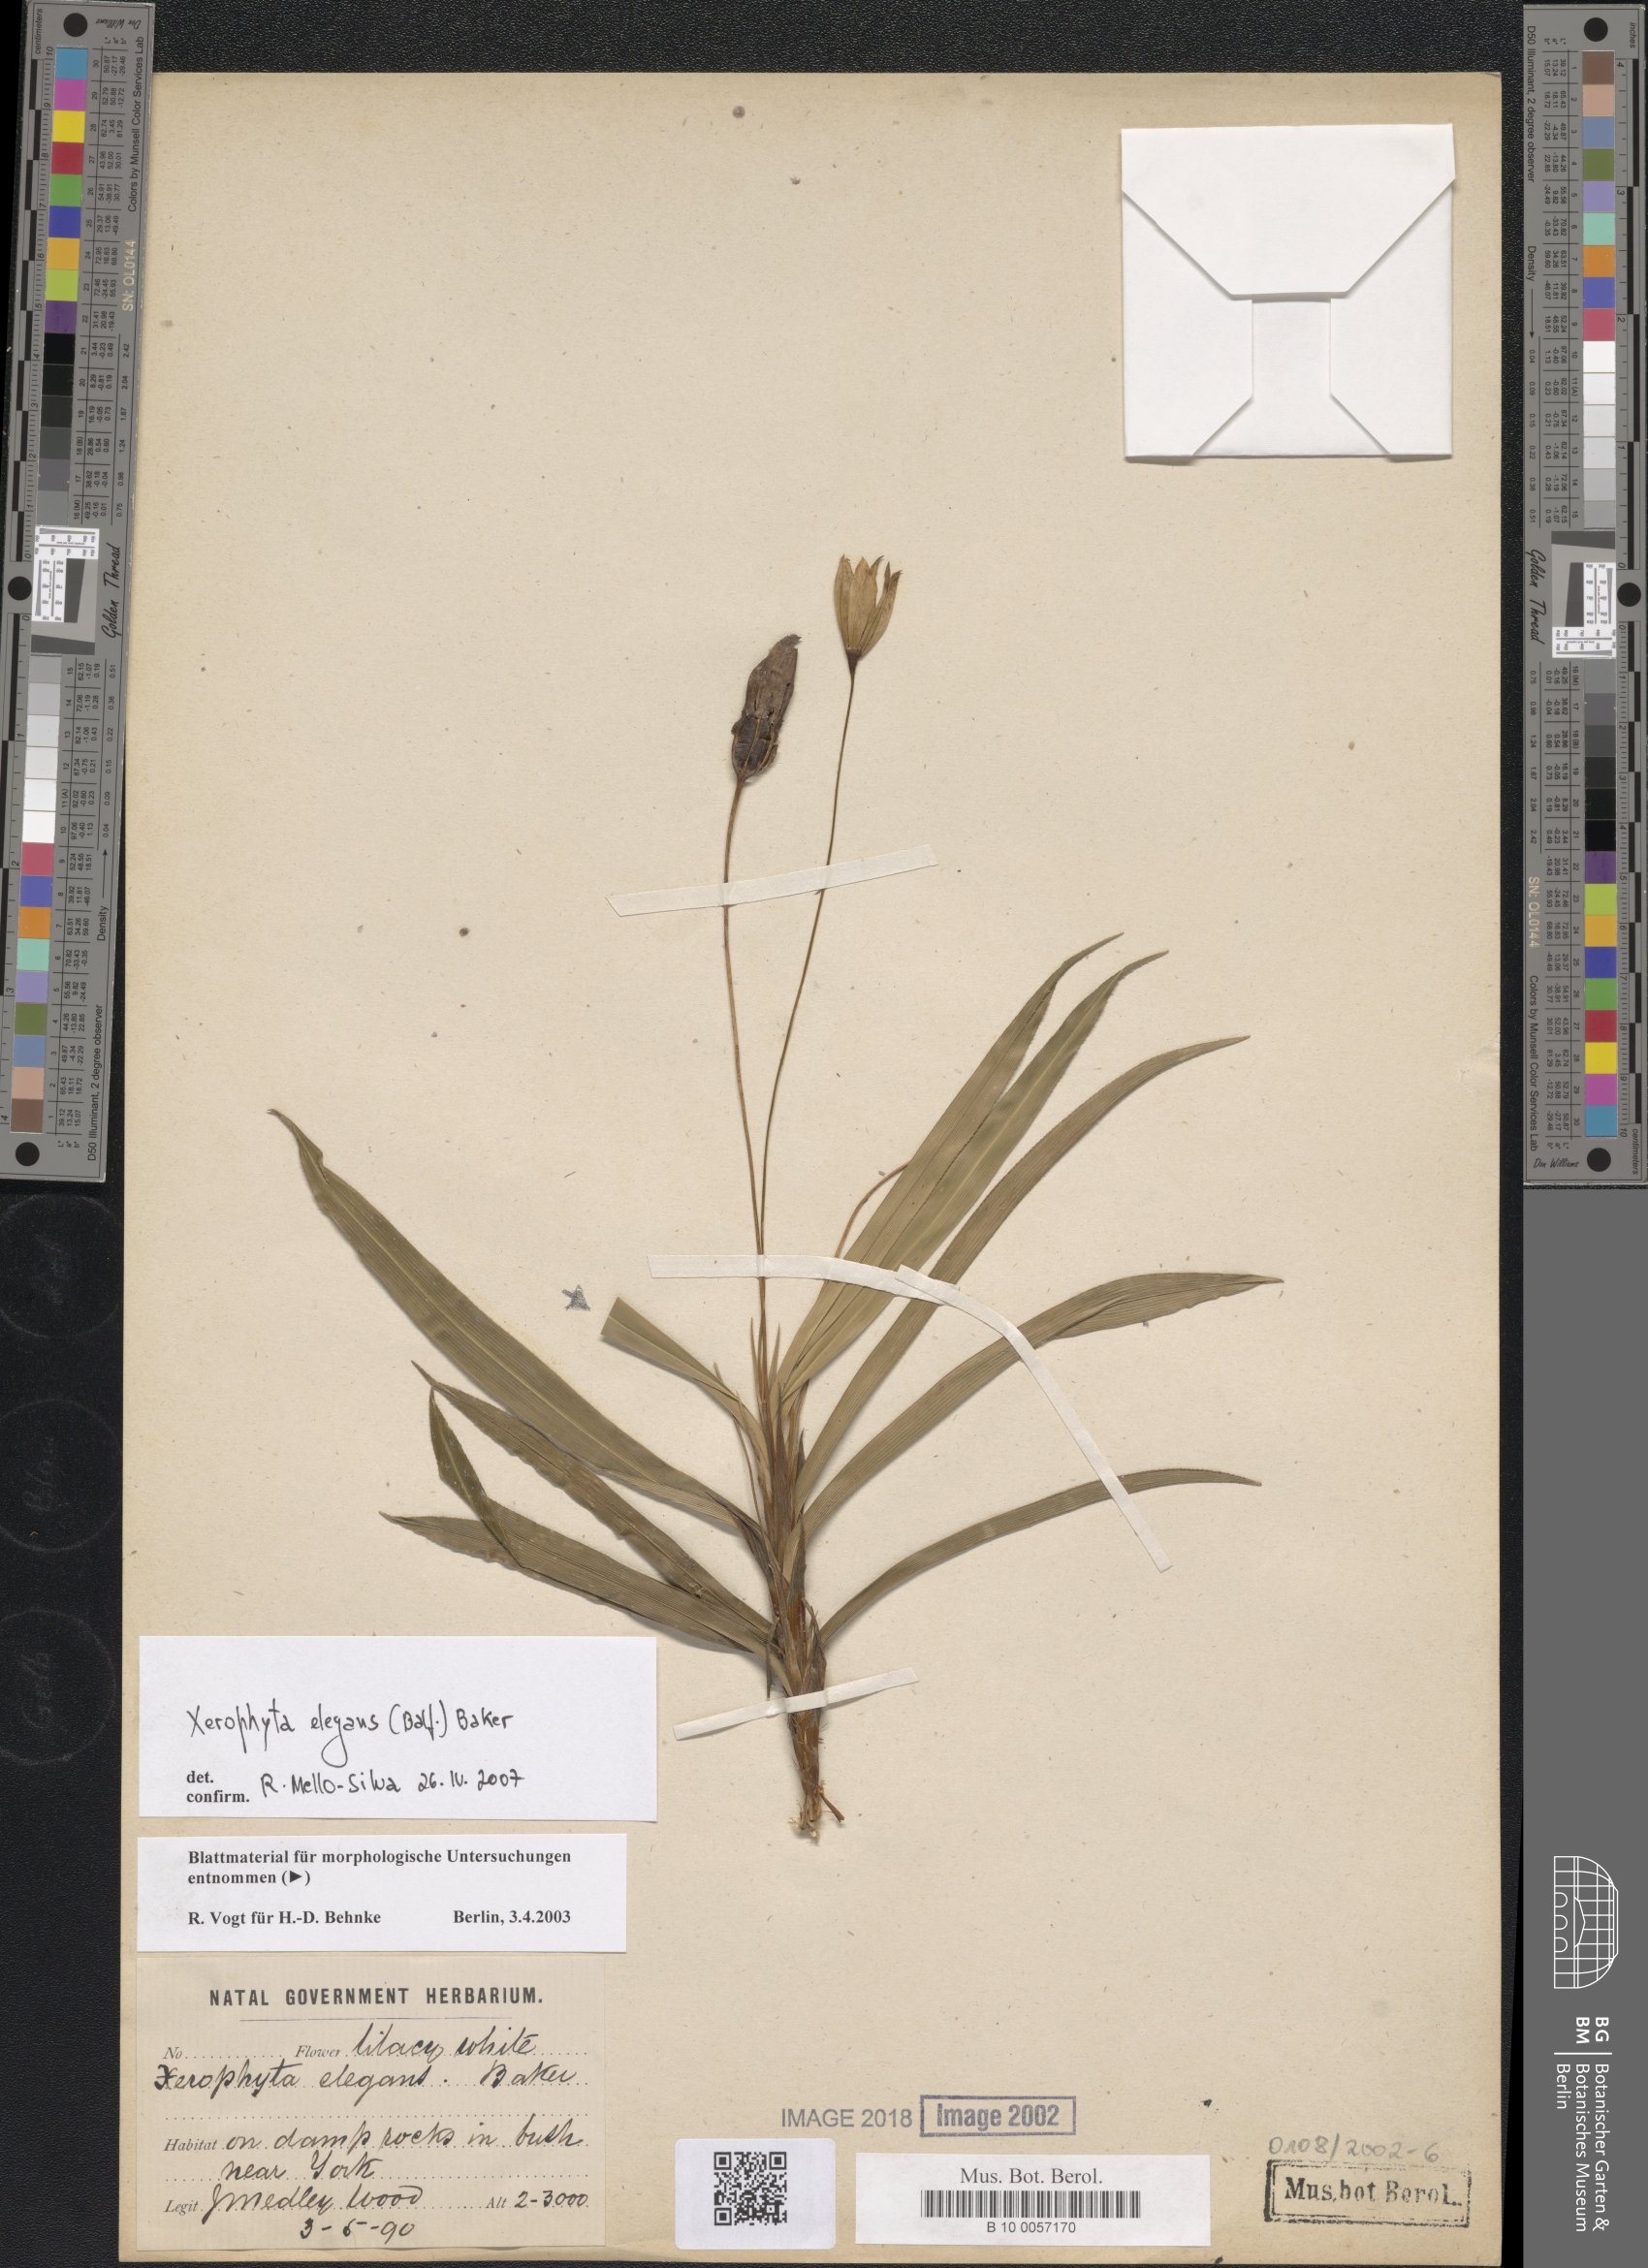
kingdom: Plantae
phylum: Tracheophyta
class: Liliopsida
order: Pandanales
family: Velloziaceae
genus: Xerophyta
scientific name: Xerophyta elegans
